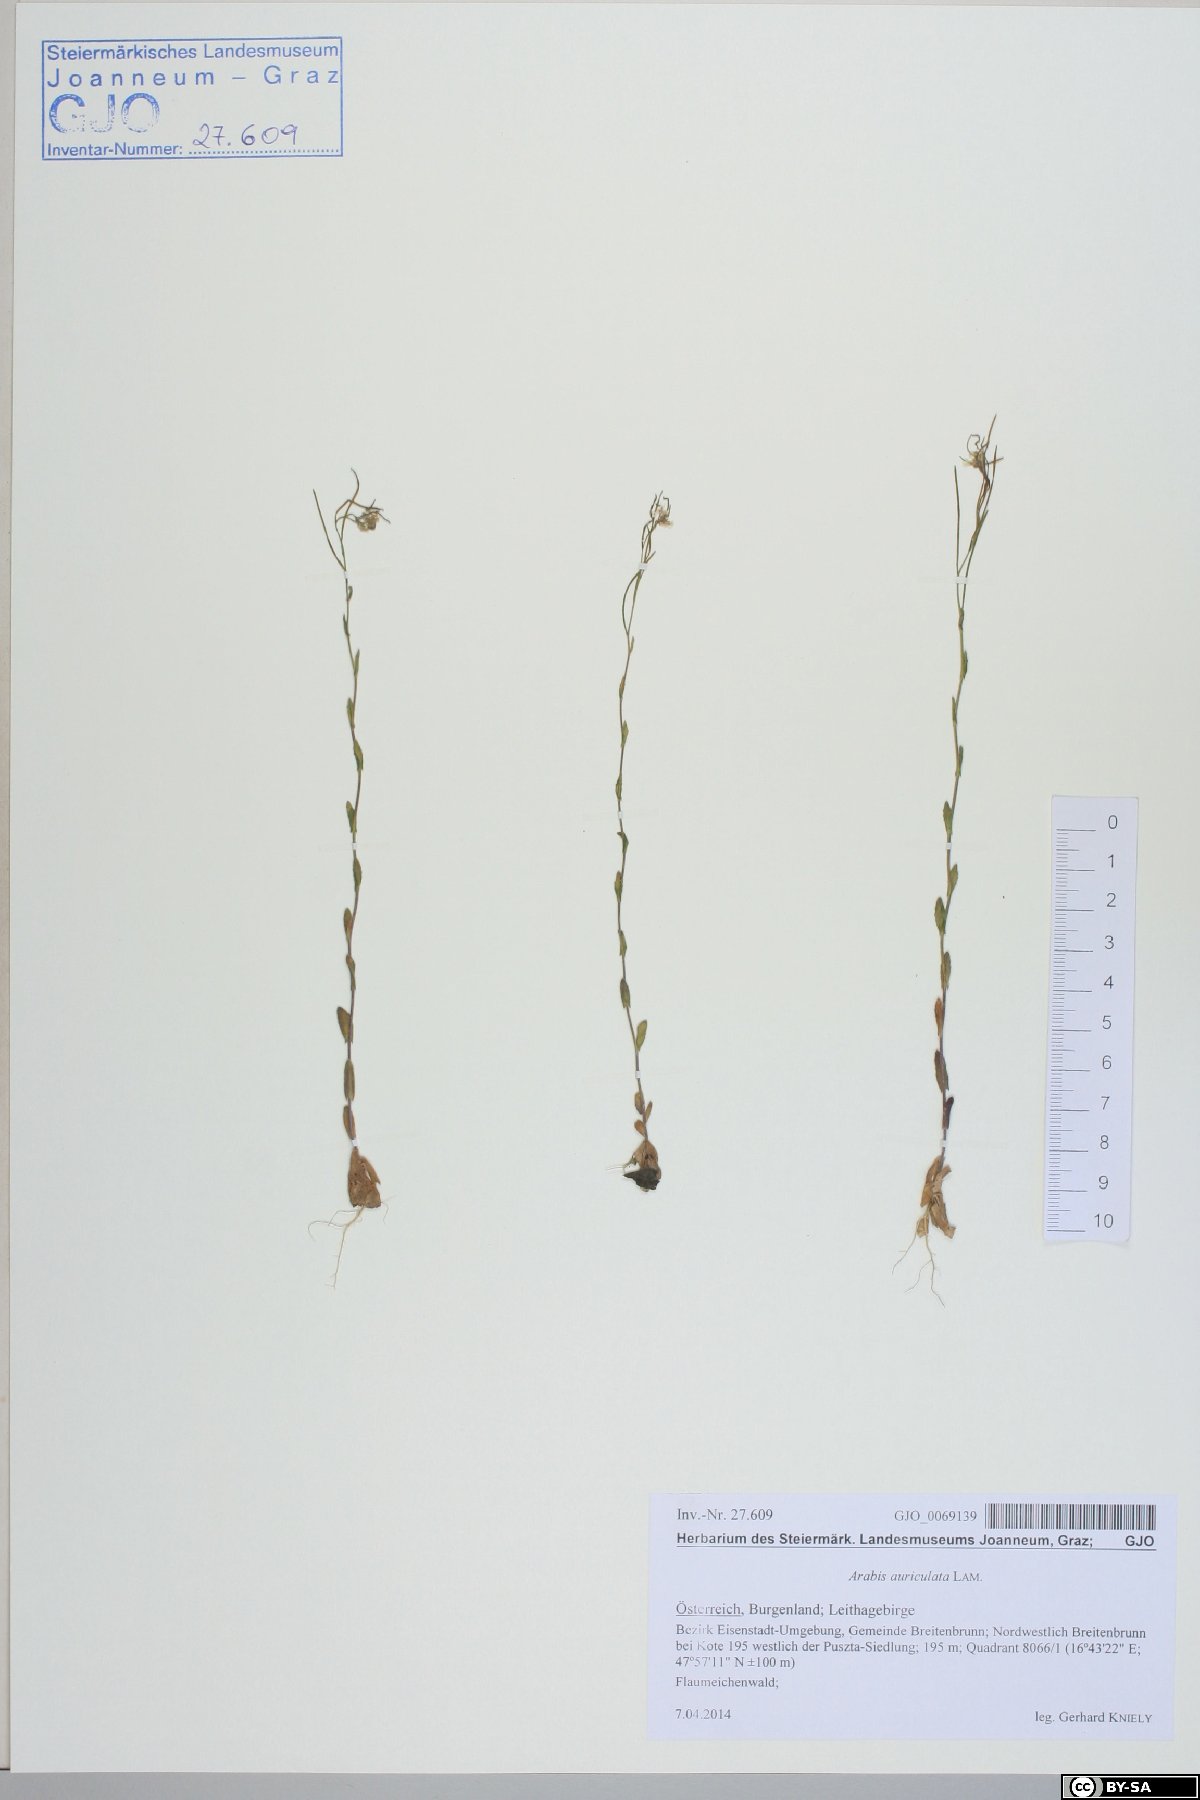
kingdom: Plantae
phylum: Tracheophyta
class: Magnoliopsida
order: Brassicales
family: Brassicaceae
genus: Arabis
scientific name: Arabis auriculata
